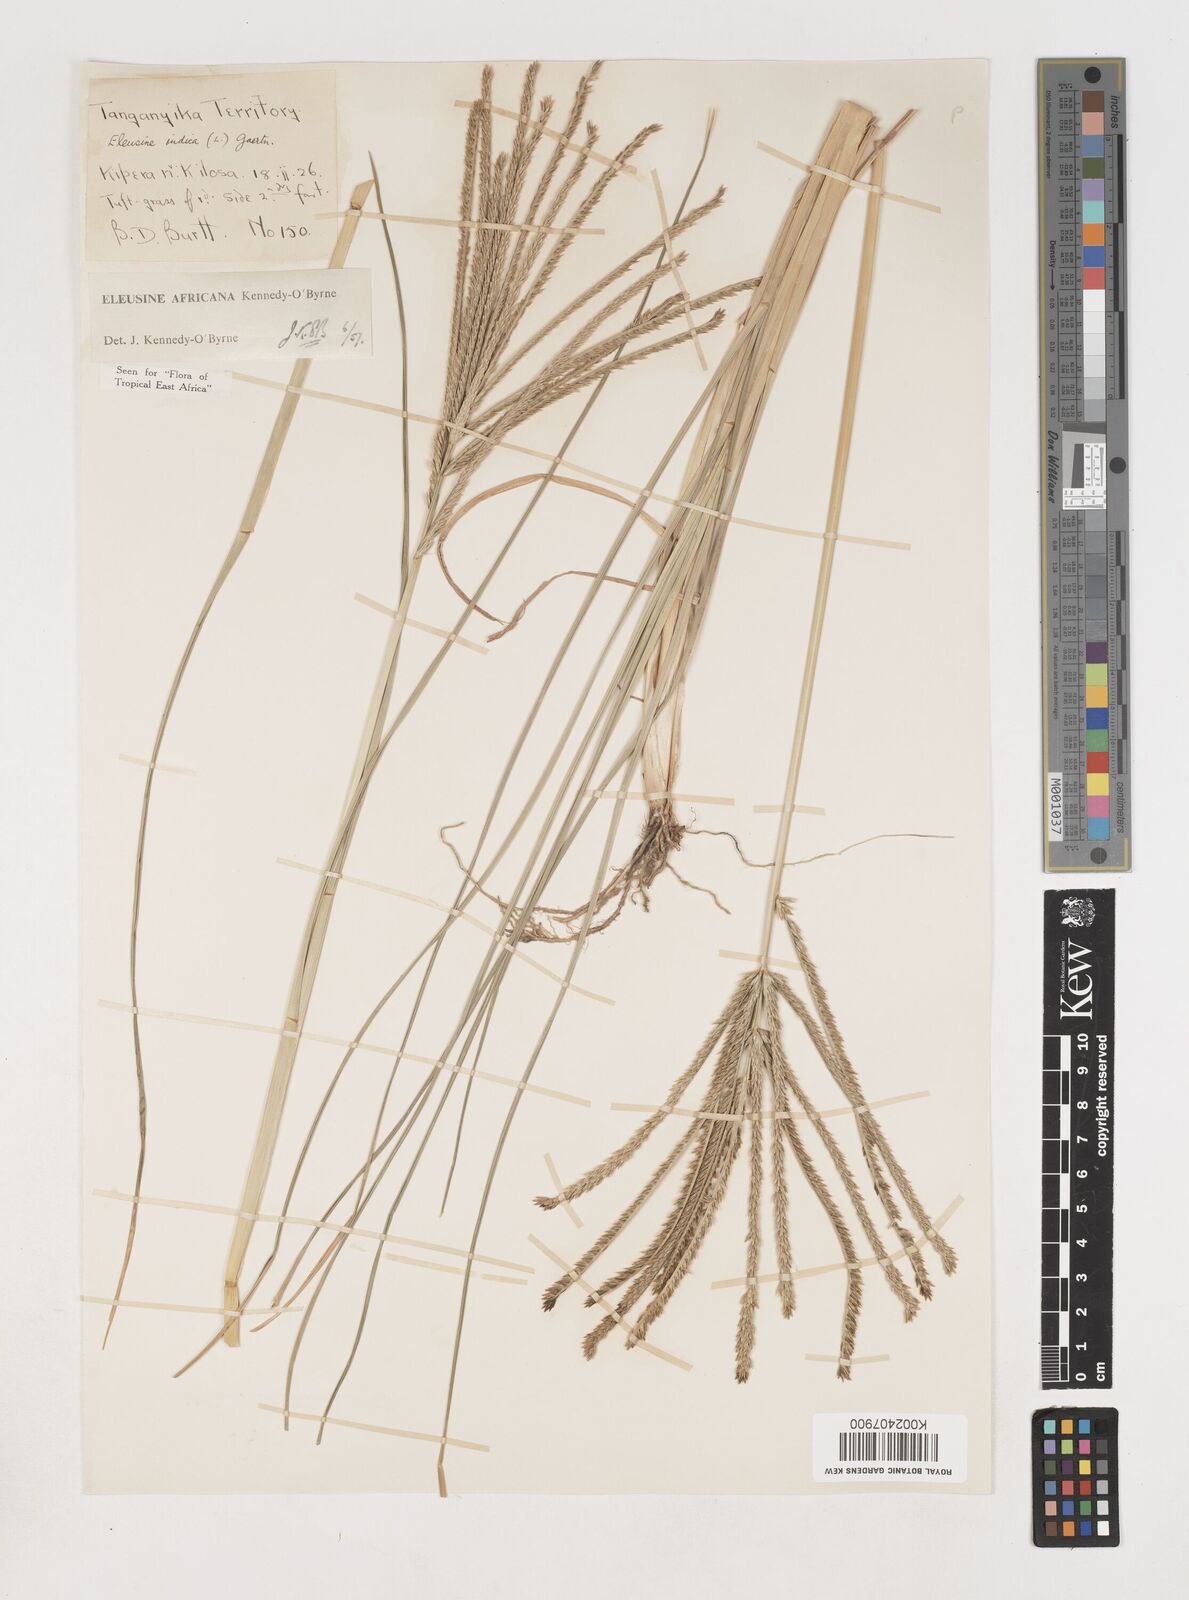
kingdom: Plantae
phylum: Tracheophyta
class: Liliopsida
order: Poales
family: Poaceae
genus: Eleusine
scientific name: Eleusine africana
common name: Wild african finger millet
